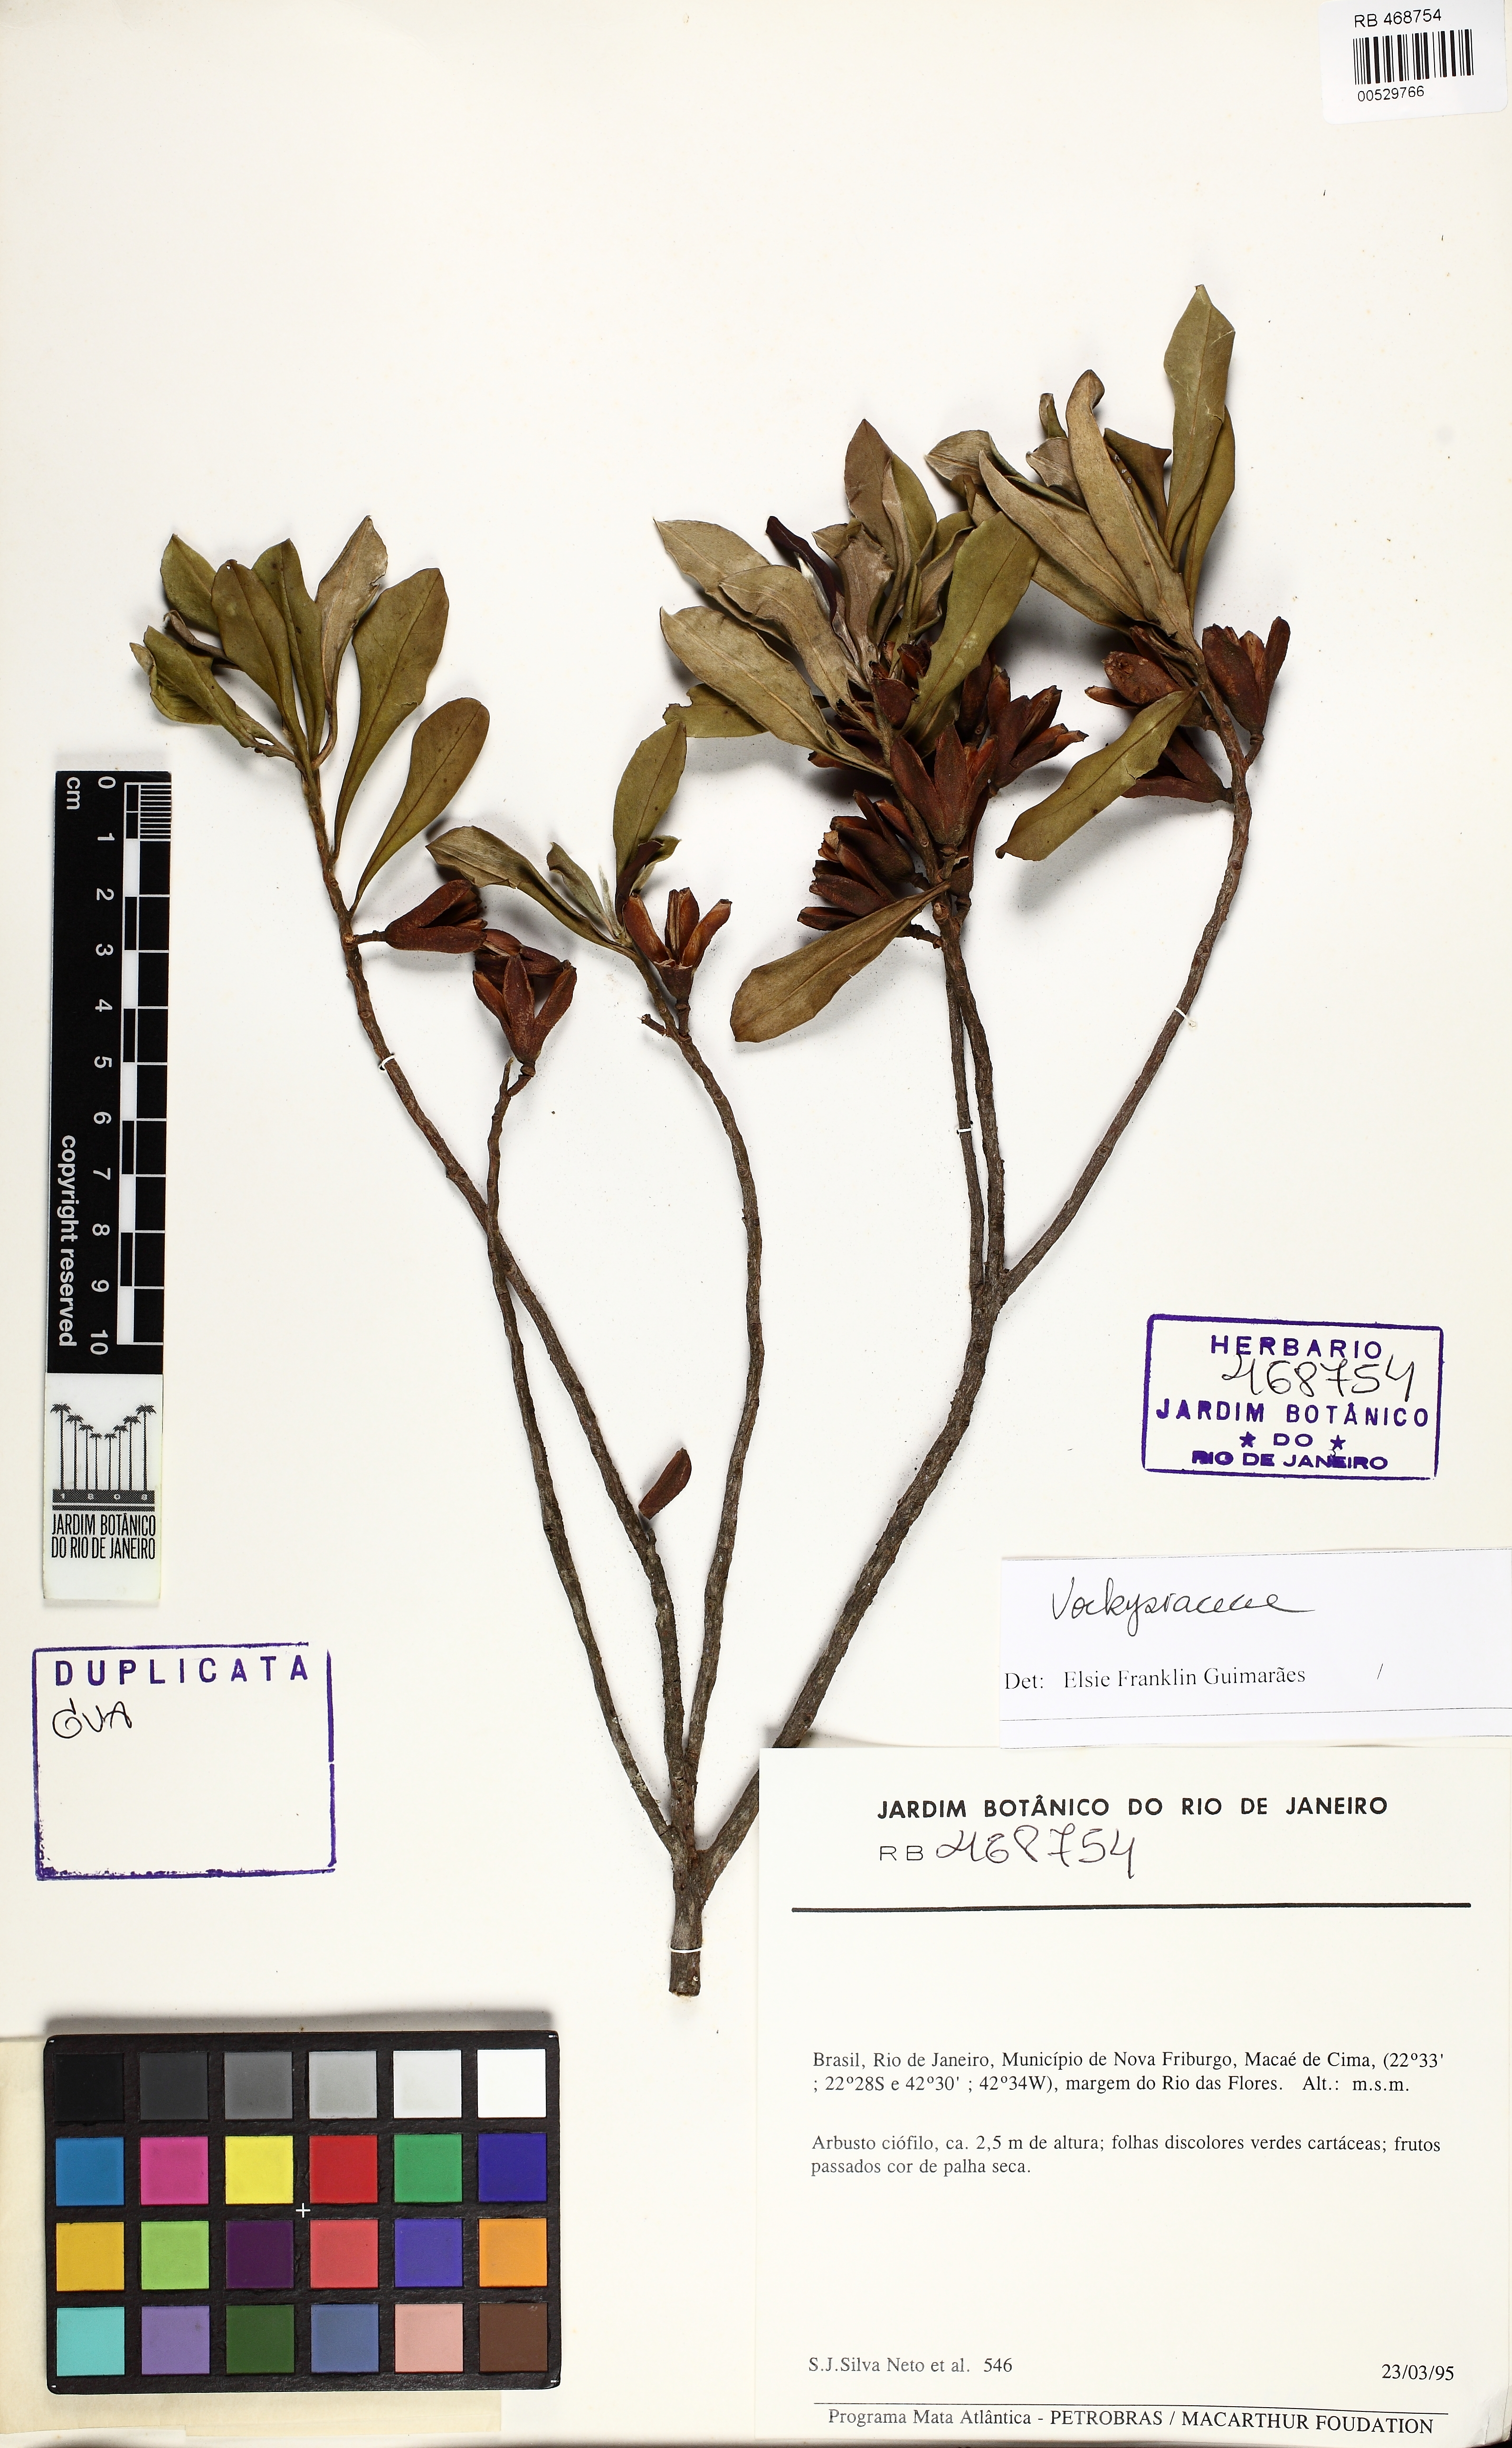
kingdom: Plantae
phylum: Tracheophyta
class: Magnoliopsida
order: Myrtales
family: Vochysiaceae
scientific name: Vochysiaceae
